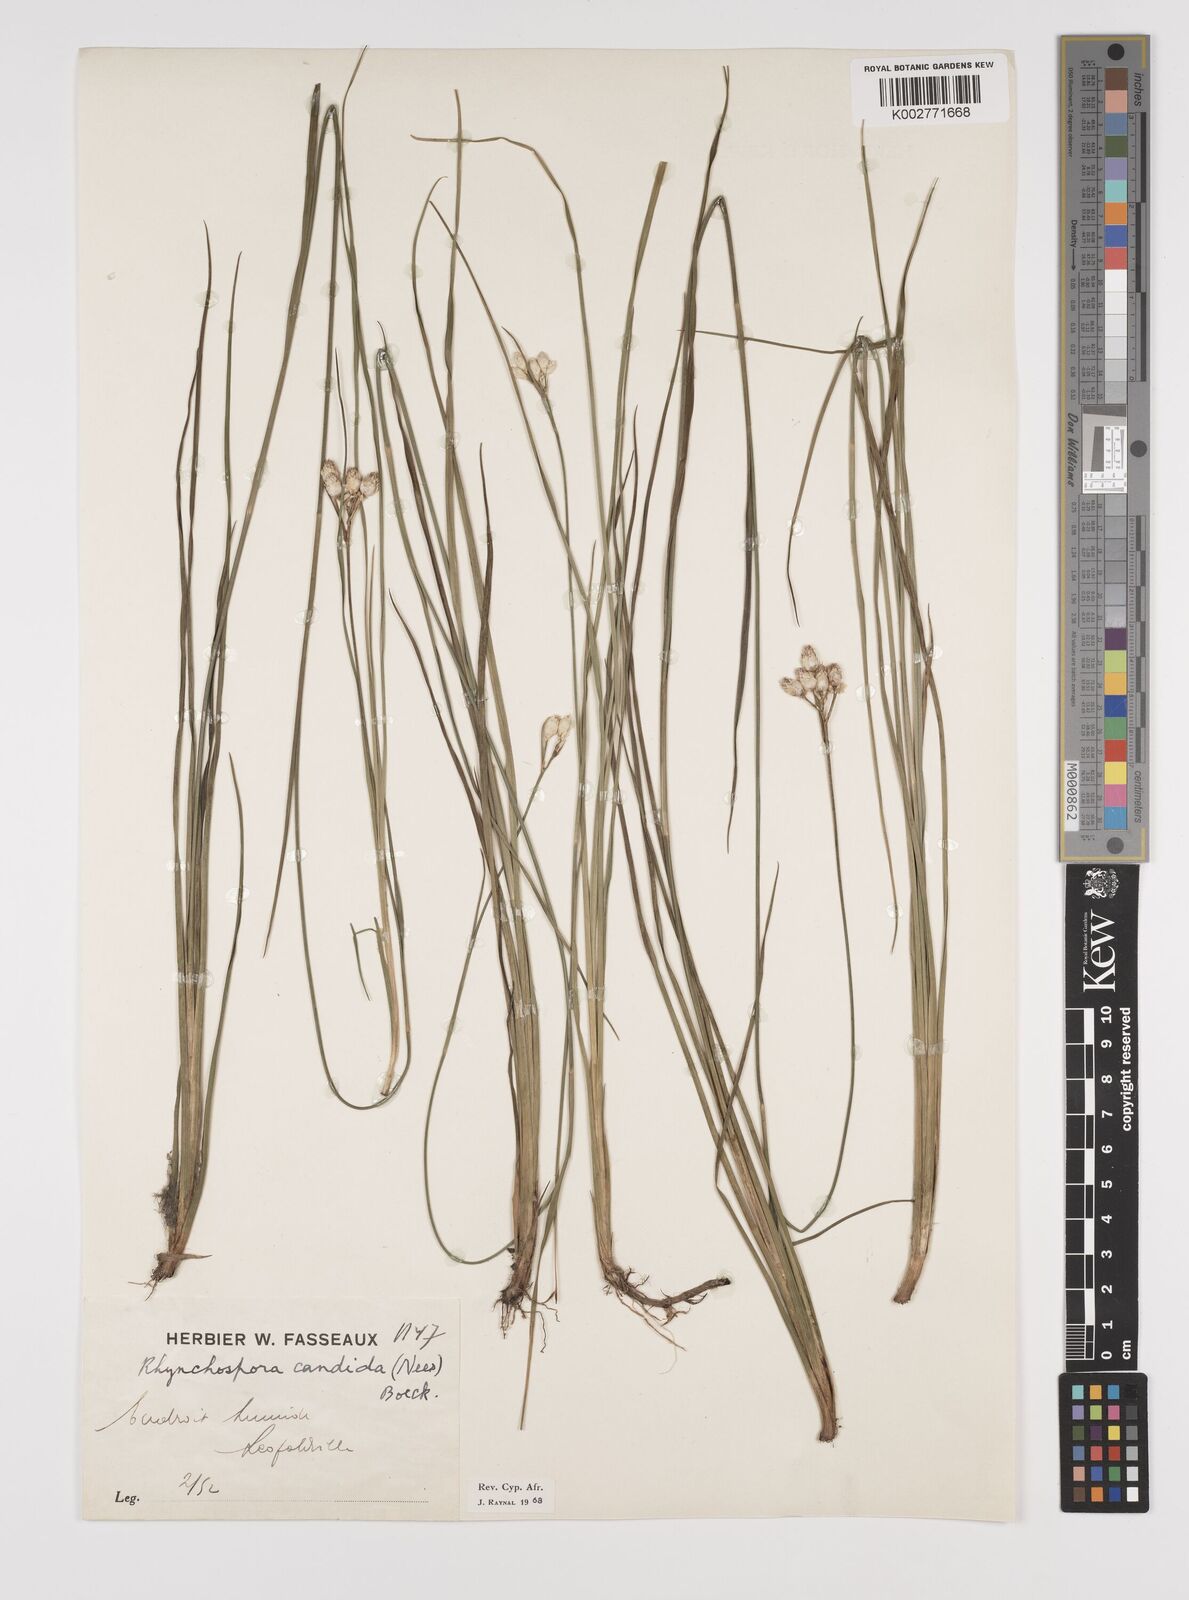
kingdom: Plantae
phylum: Tracheophyta
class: Liliopsida
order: Poales
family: Cyperaceae
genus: Rhynchospora
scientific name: Rhynchospora candida
